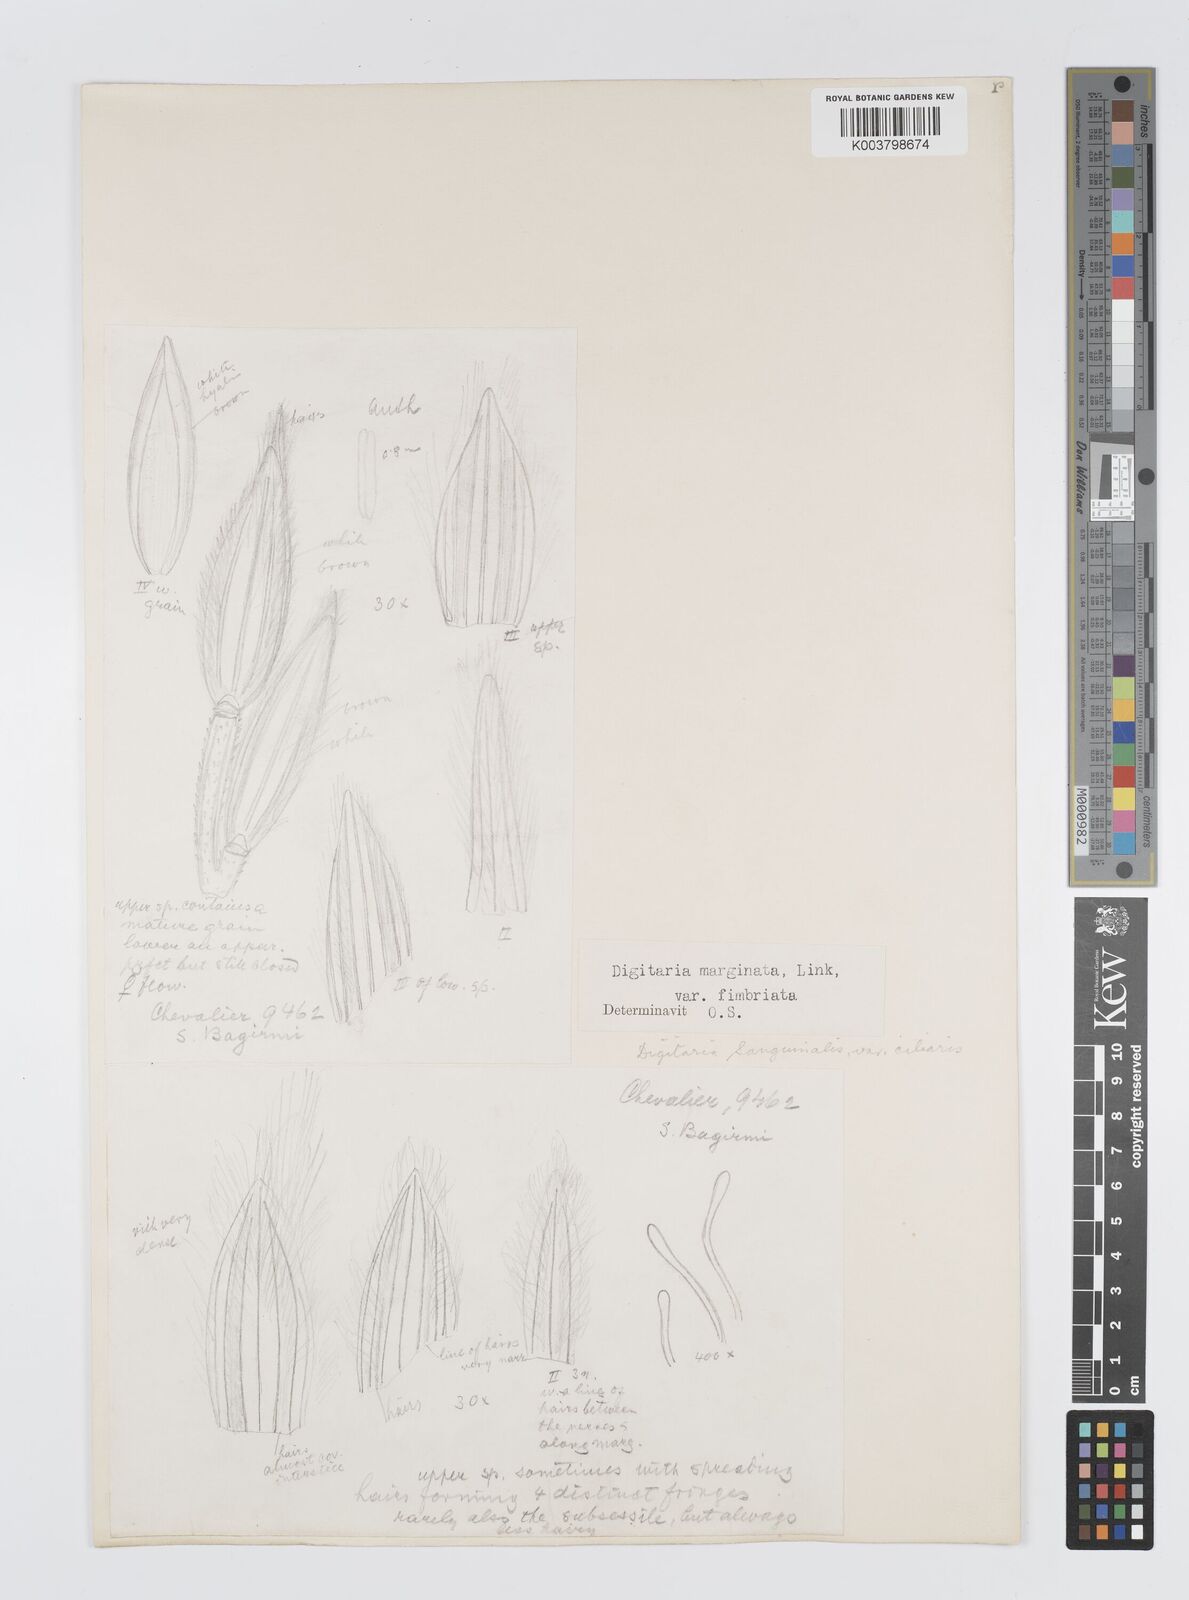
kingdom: Plantae
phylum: Tracheophyta
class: Liliopsida
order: Poales
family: Poaceae
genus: Digitaria
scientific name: Digitaria ciliaris
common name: Tropical finger-grass
